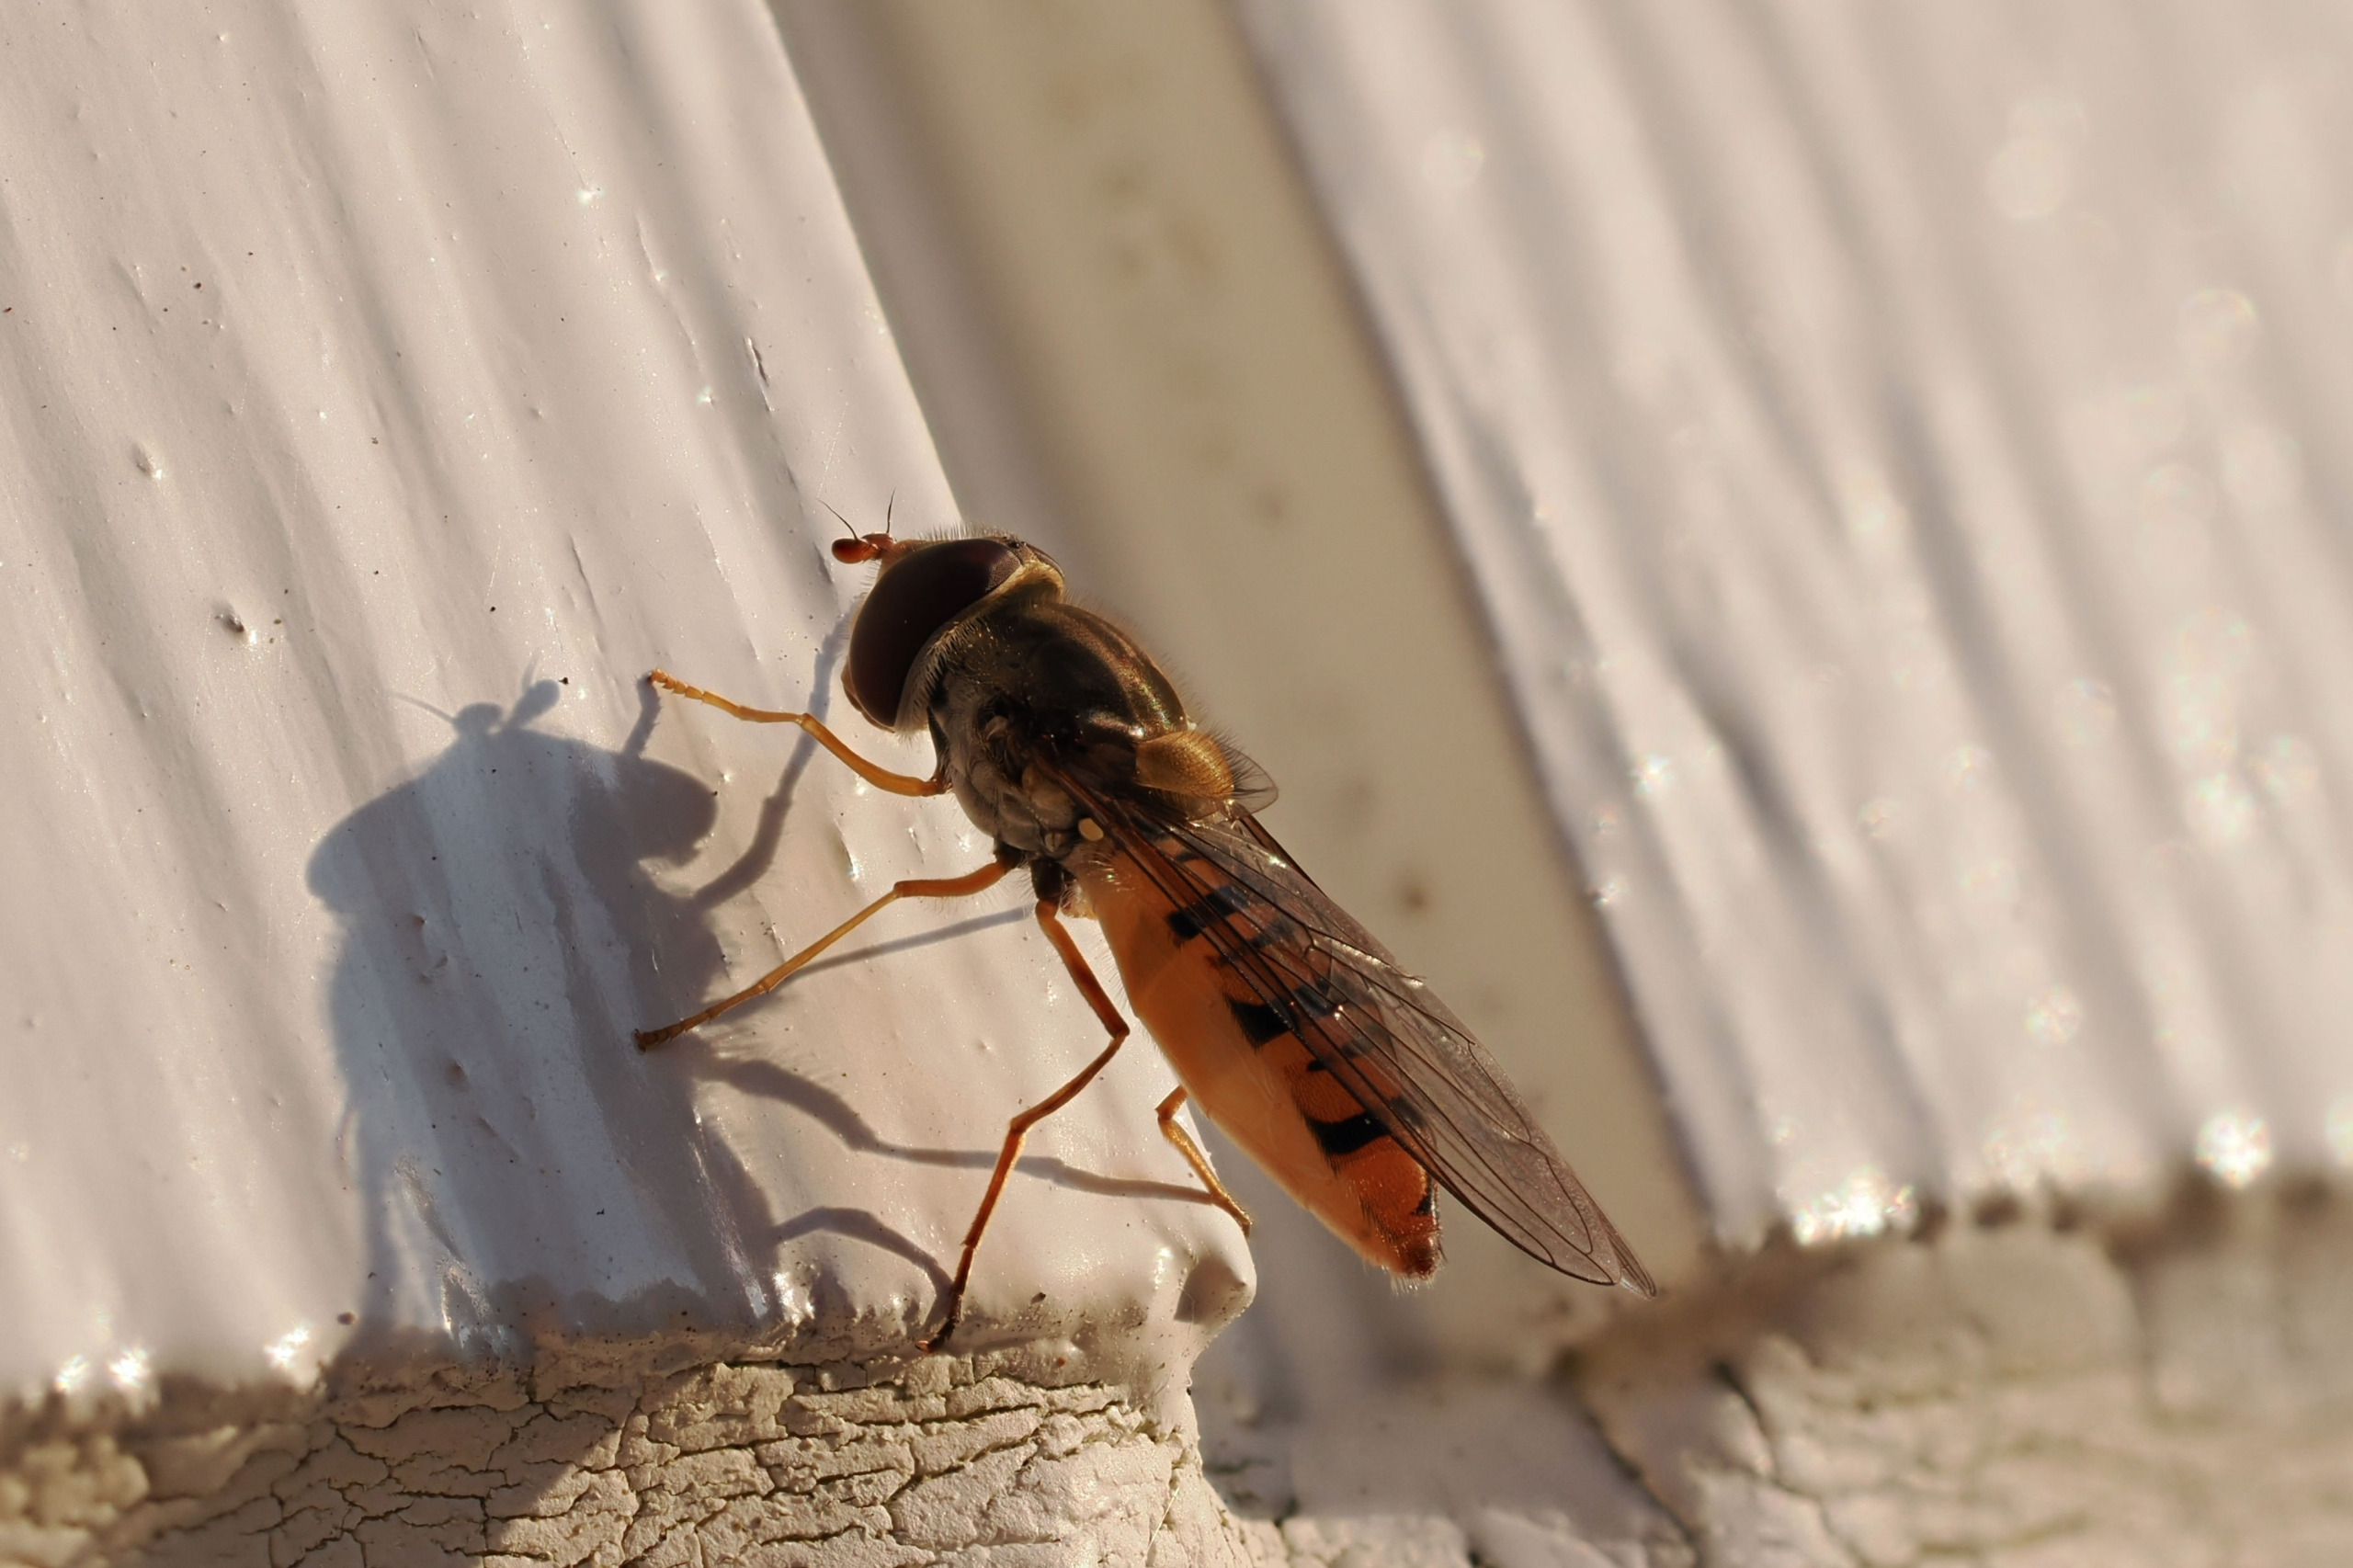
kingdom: Animalia
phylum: Arthropoda
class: Insecta
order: Diptera
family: Syrphidae
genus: Episyrphus
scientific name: Episyrphus balteatus
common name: Dobbeltbåndet svirreflue
